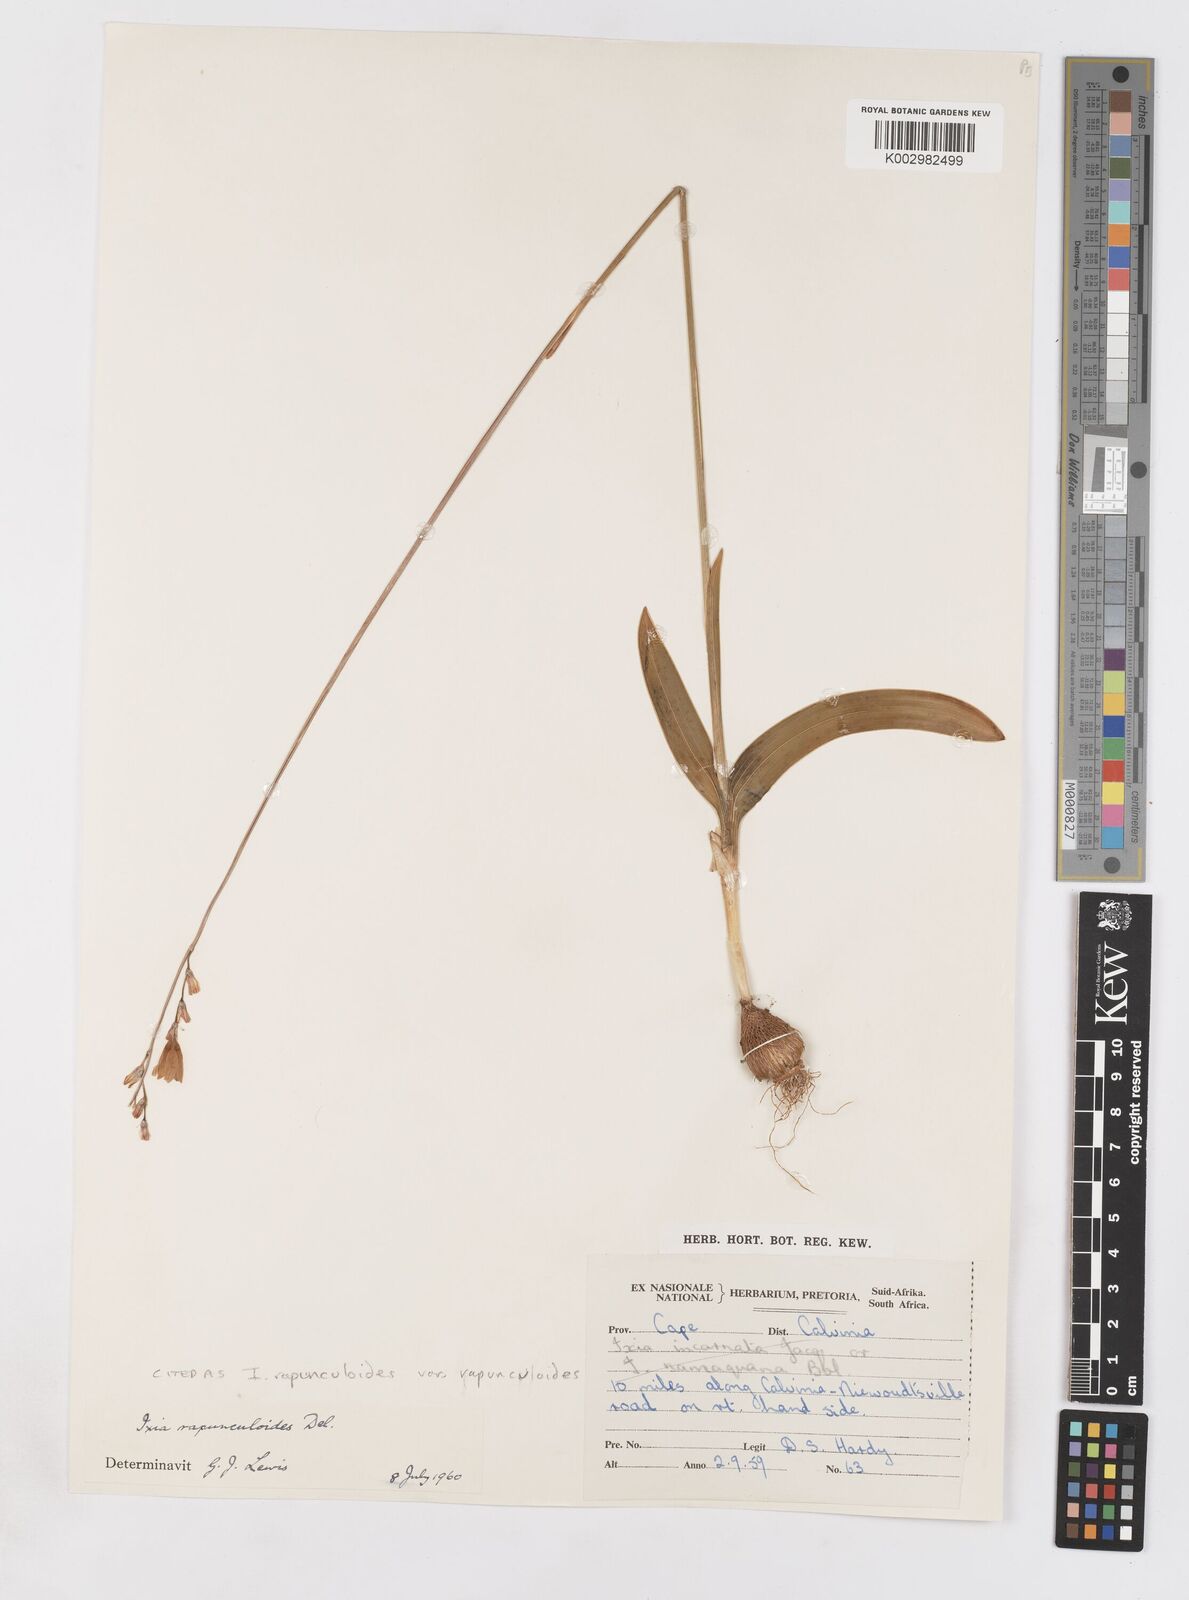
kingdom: Plantae
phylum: Tracheophyta
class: Liliopsida
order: Asparagales
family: Iridaceae
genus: Ixia
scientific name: Ixia rapunculoides
